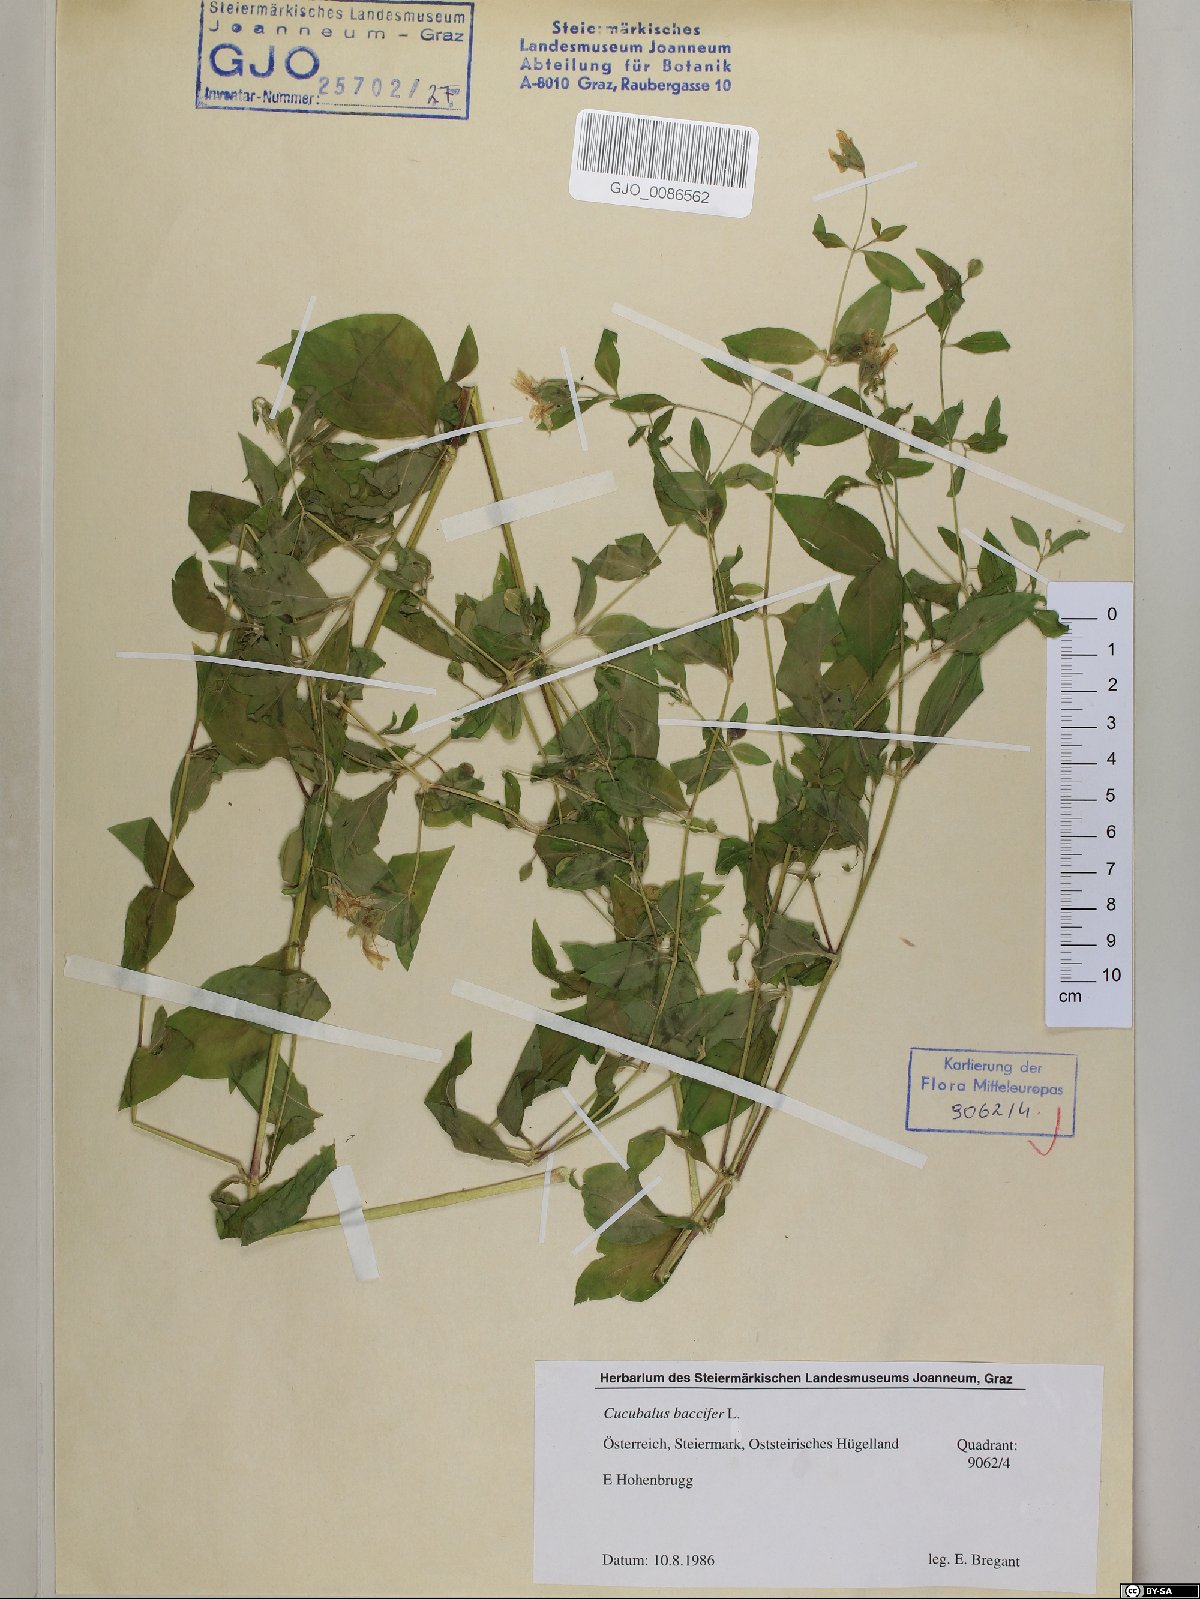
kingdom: Plantae
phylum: Tracheophyta
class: Magnoliopsida
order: Caryophyllales
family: Caryophyllaceae
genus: Silene
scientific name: Silene baccifera
